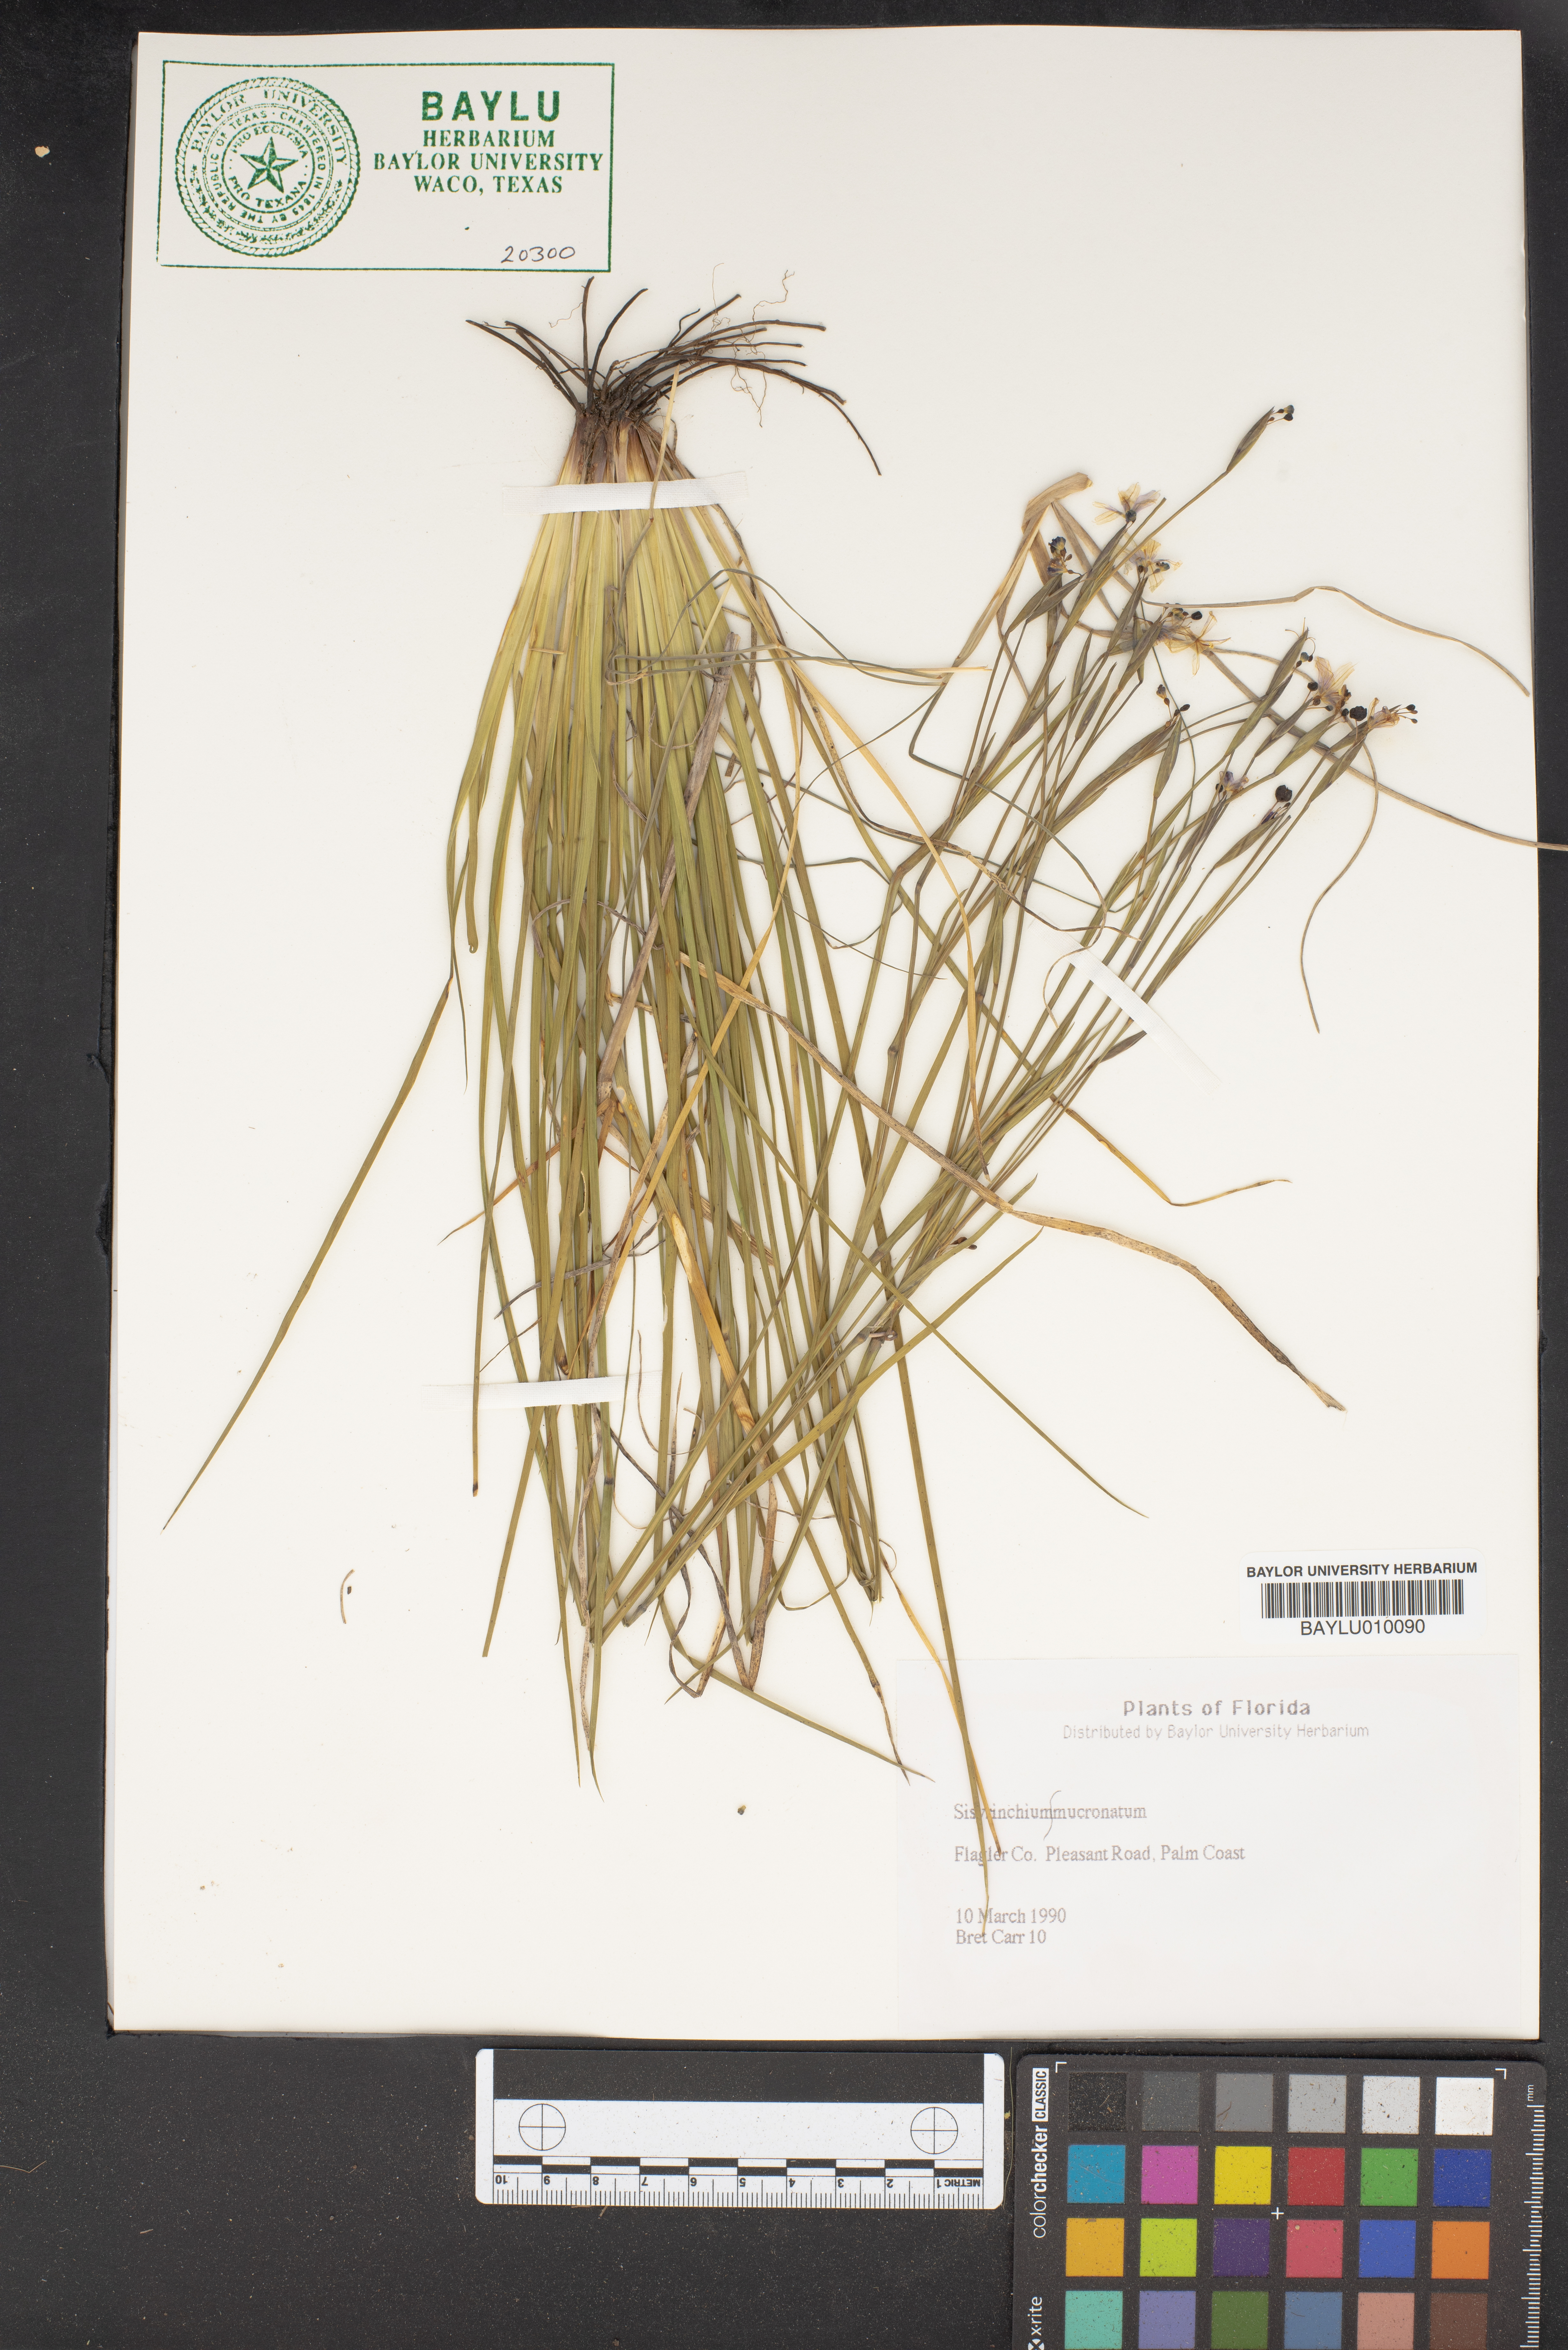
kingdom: Plantae
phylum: Tracheophyta
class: Liliopsida
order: Asparagales
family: Iridaceae
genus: Sisyrinchium
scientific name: Sisyrinchium mucronatum
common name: Eastern blue-eyed-grass
